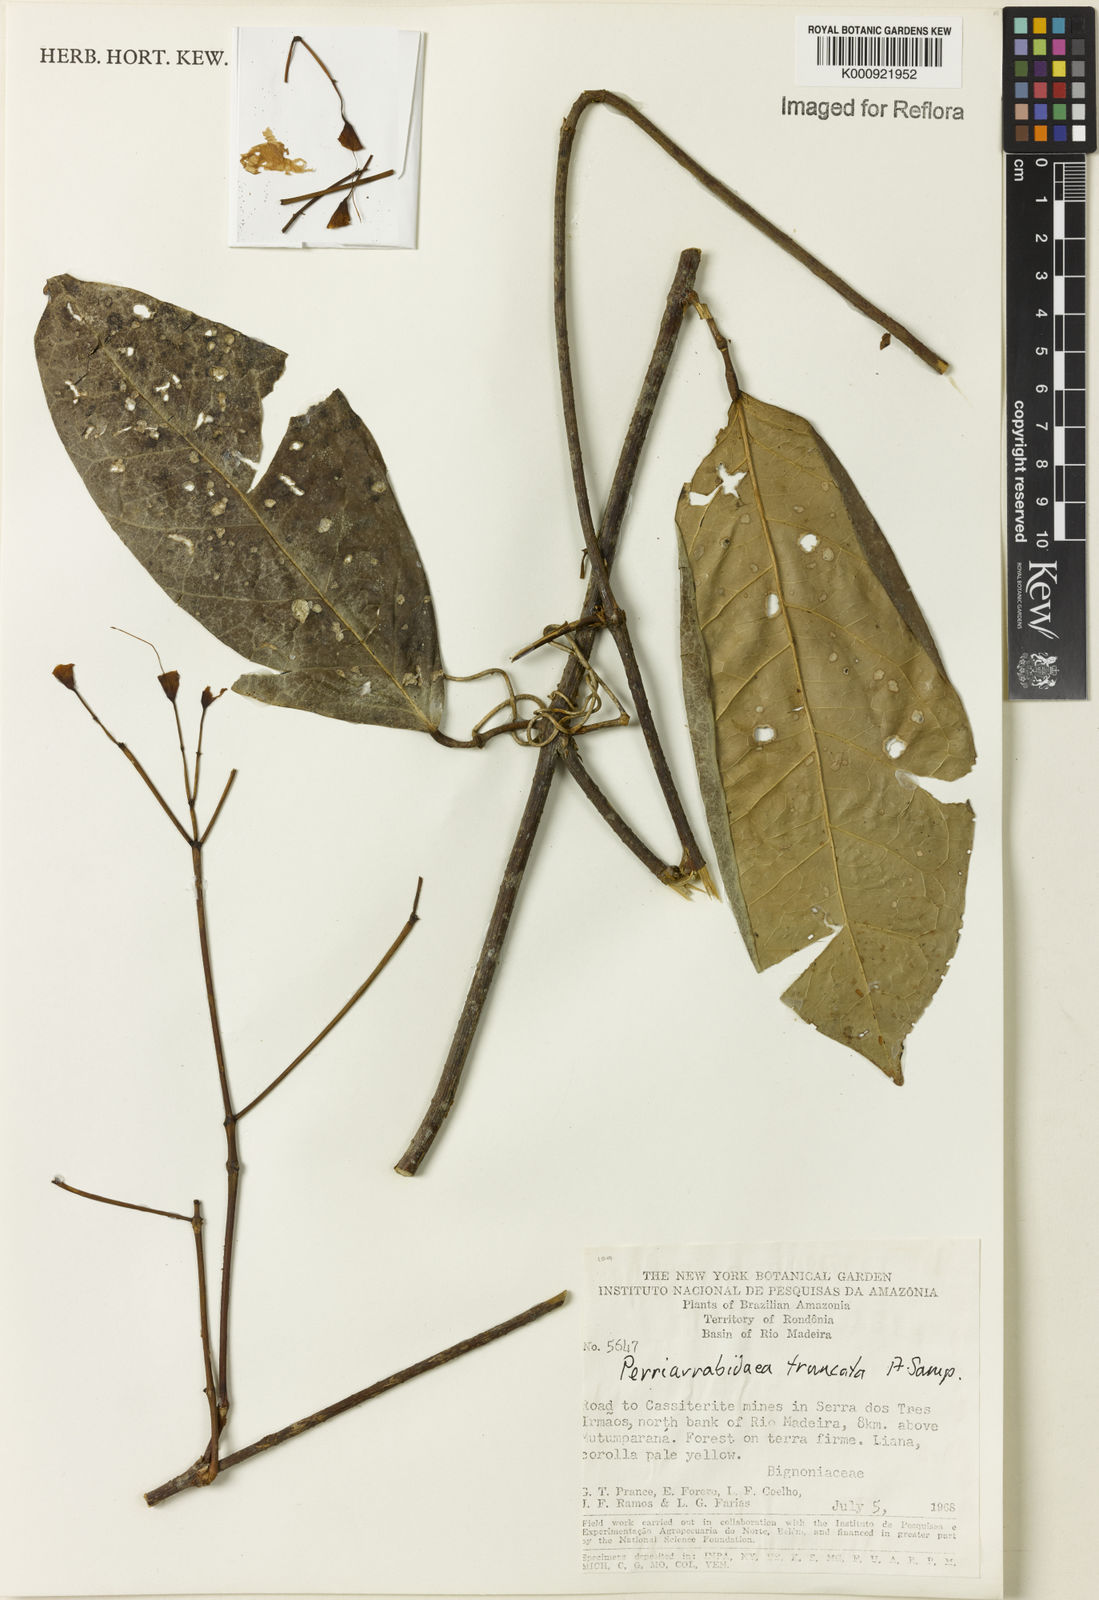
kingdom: Plantae
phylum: Tracheophyta
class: Magnoliopsida
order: Lamiales
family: Bignoniaceae
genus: Tanaecium
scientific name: Tanaecium truncatum
